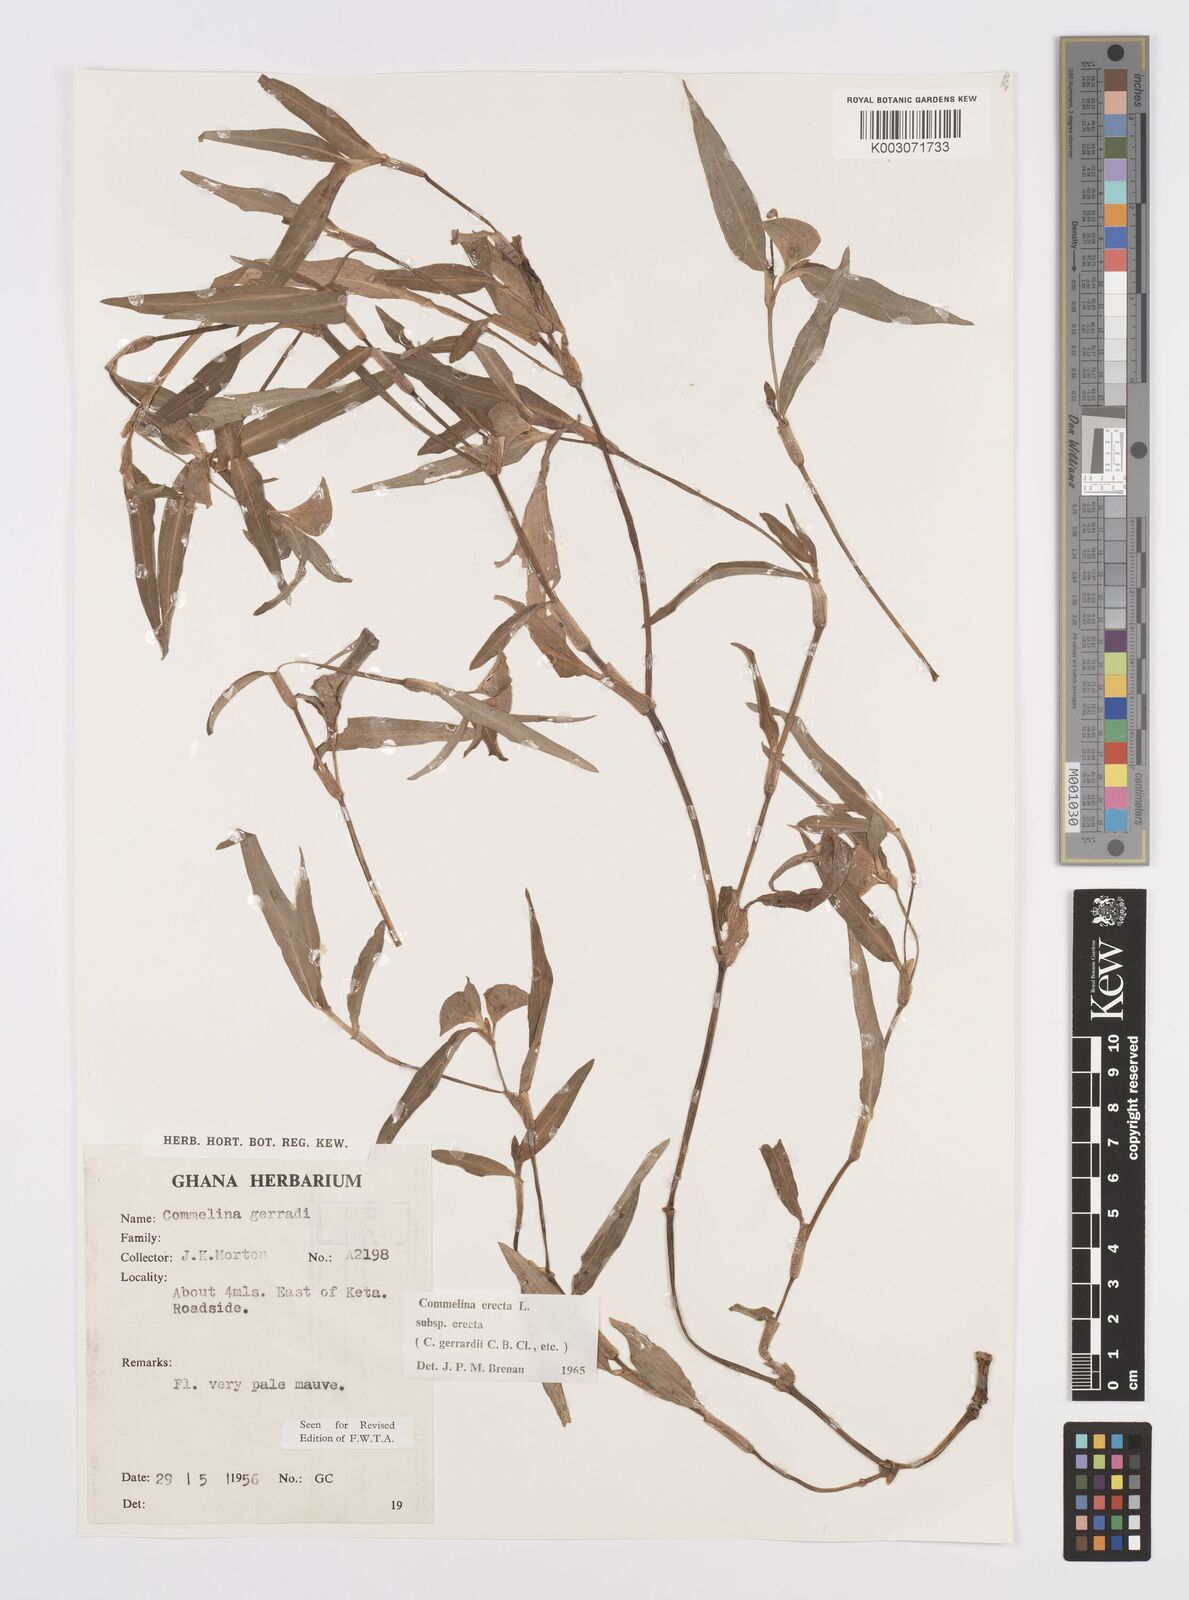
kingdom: Plantae
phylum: Tracheophyta
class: Liliopsida
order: Commelinales
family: Commelinaceae
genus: Commelina
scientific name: Commelina erecta
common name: Blousel blommetjie
